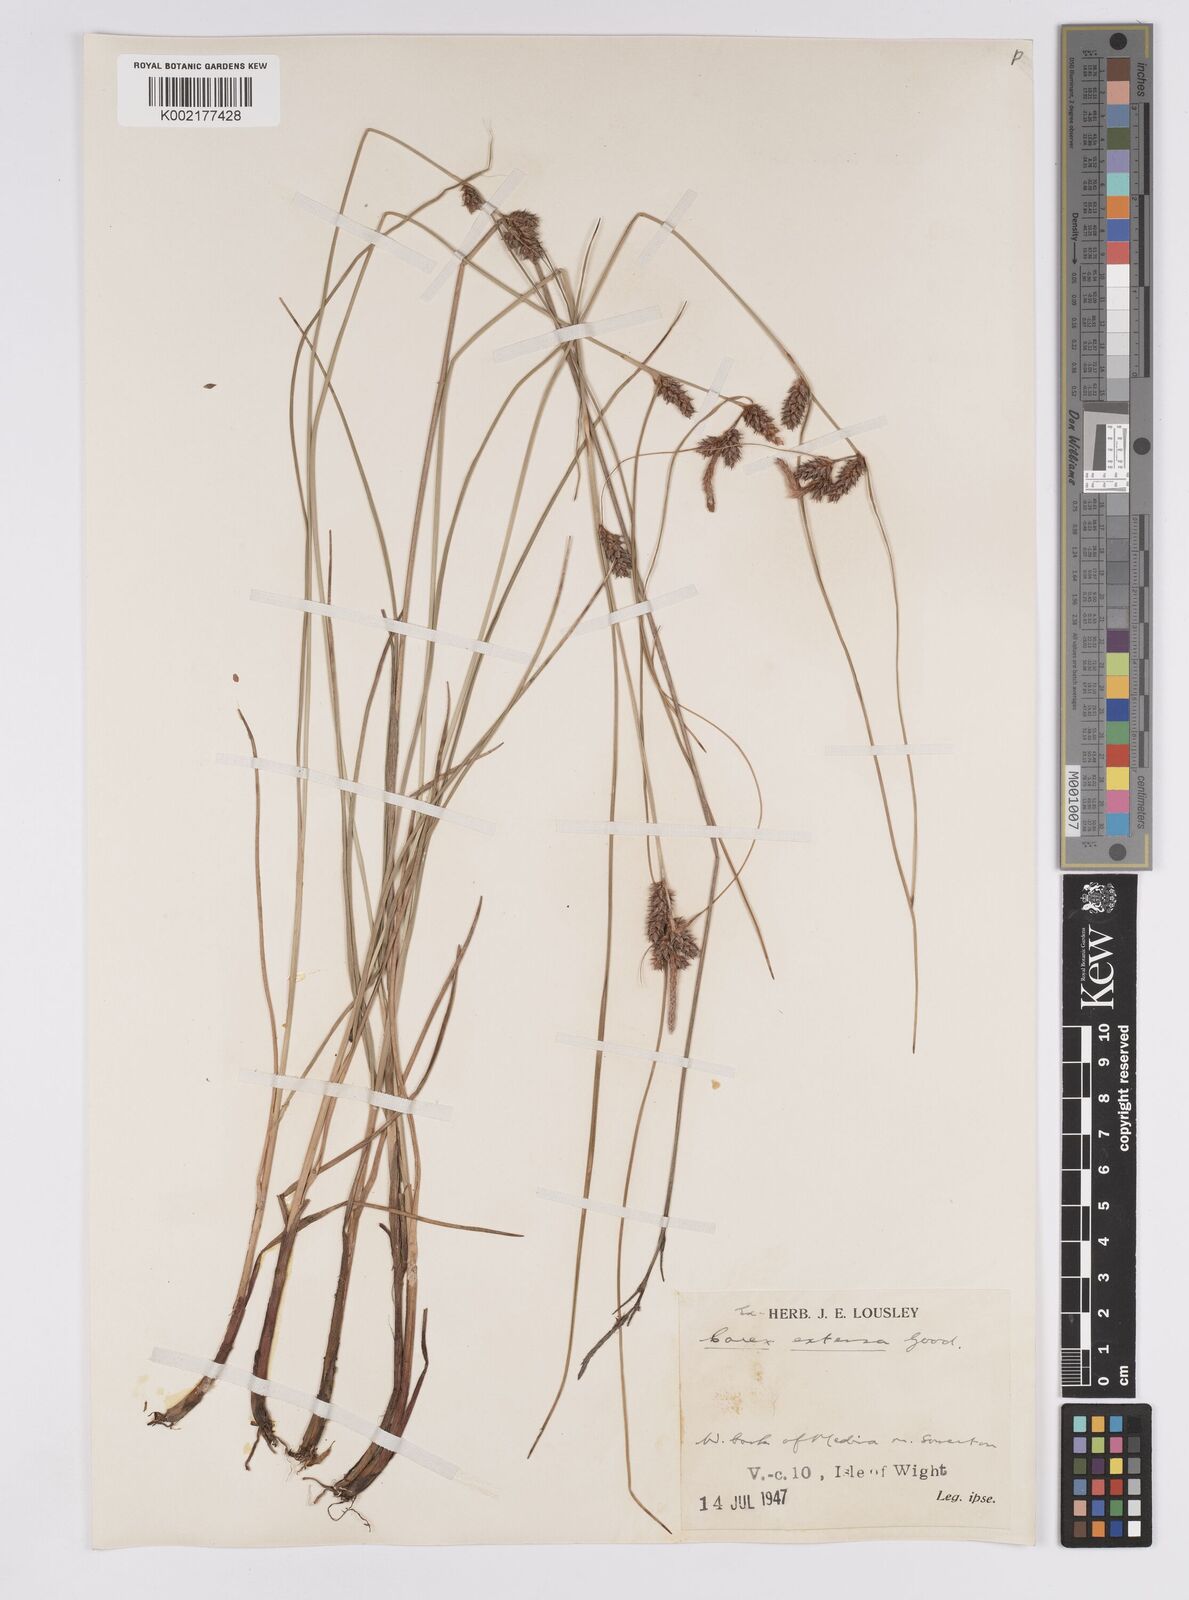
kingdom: Plantae
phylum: Tracheophyta
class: Liliopsida
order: Poales
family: Cyperaceae
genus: Carex
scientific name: Carex extensa
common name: Long-bracted sedge
